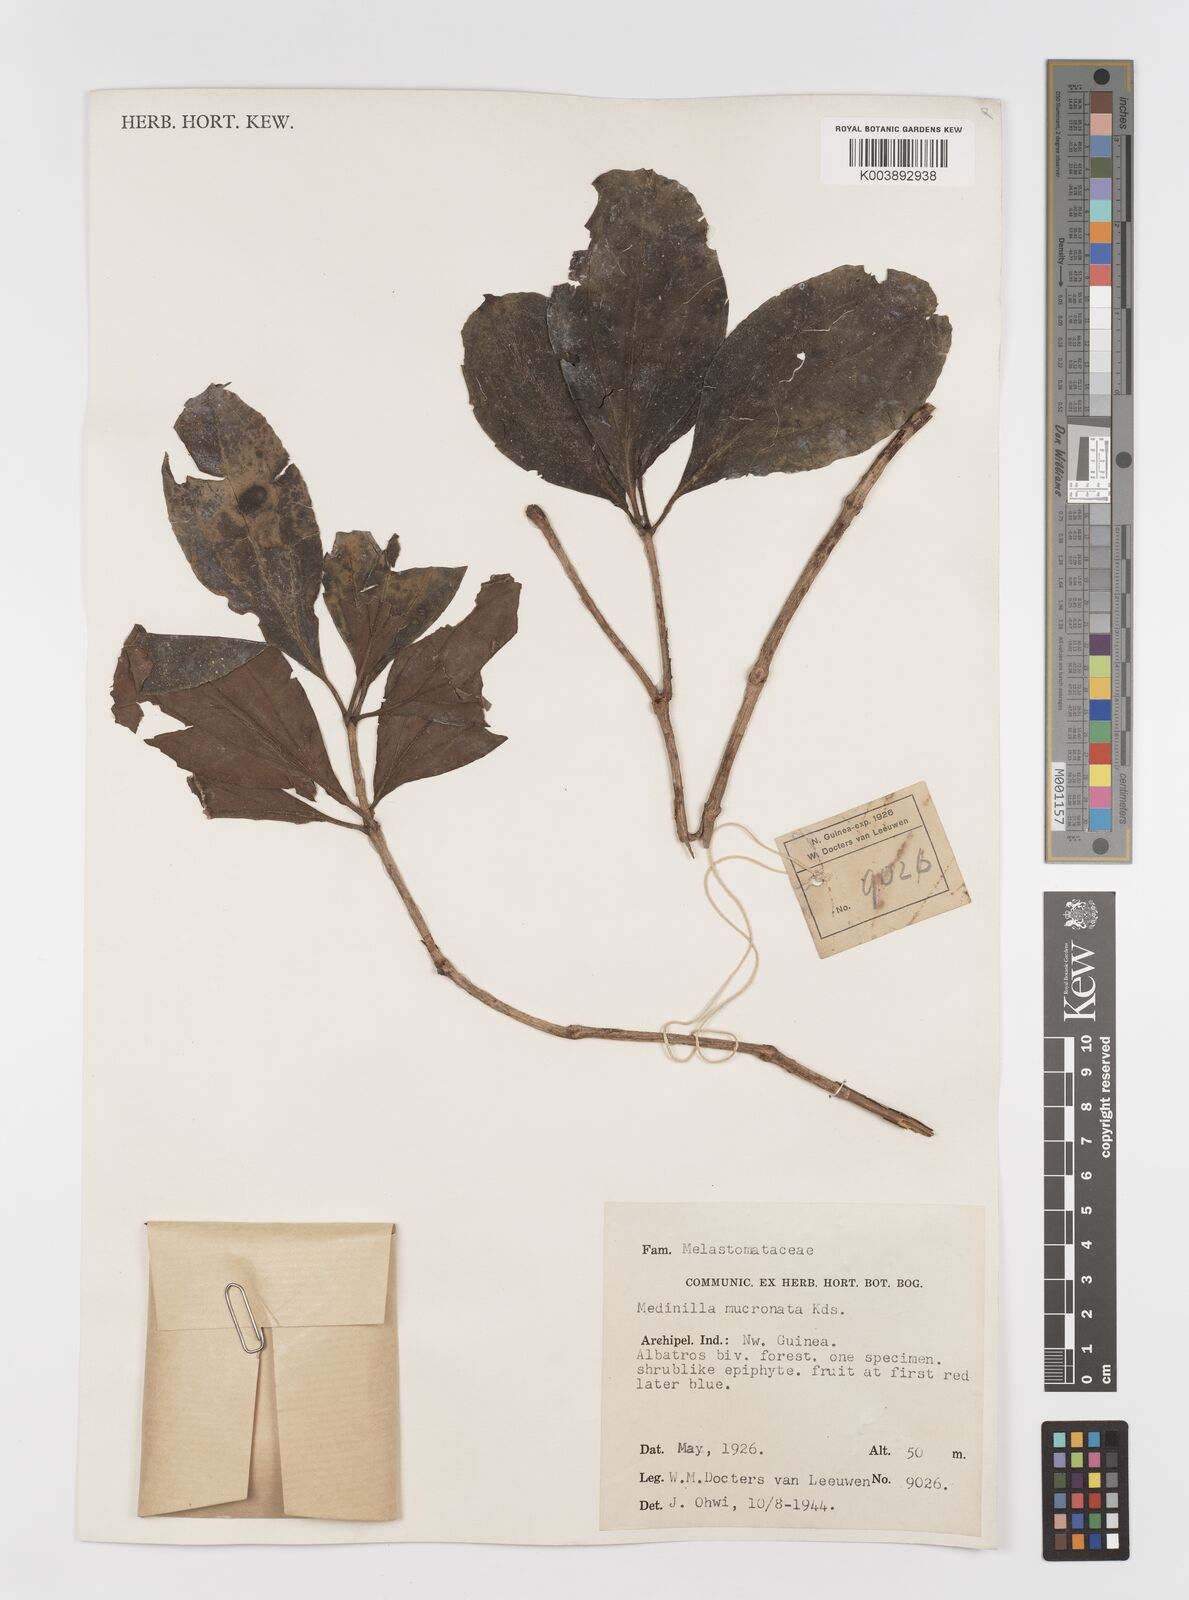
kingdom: Plantae
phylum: Tracheophyta
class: Magnoliopsida
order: Myrtales
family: Melastomataceae
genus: Medinilla
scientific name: Medinilla mucronata
